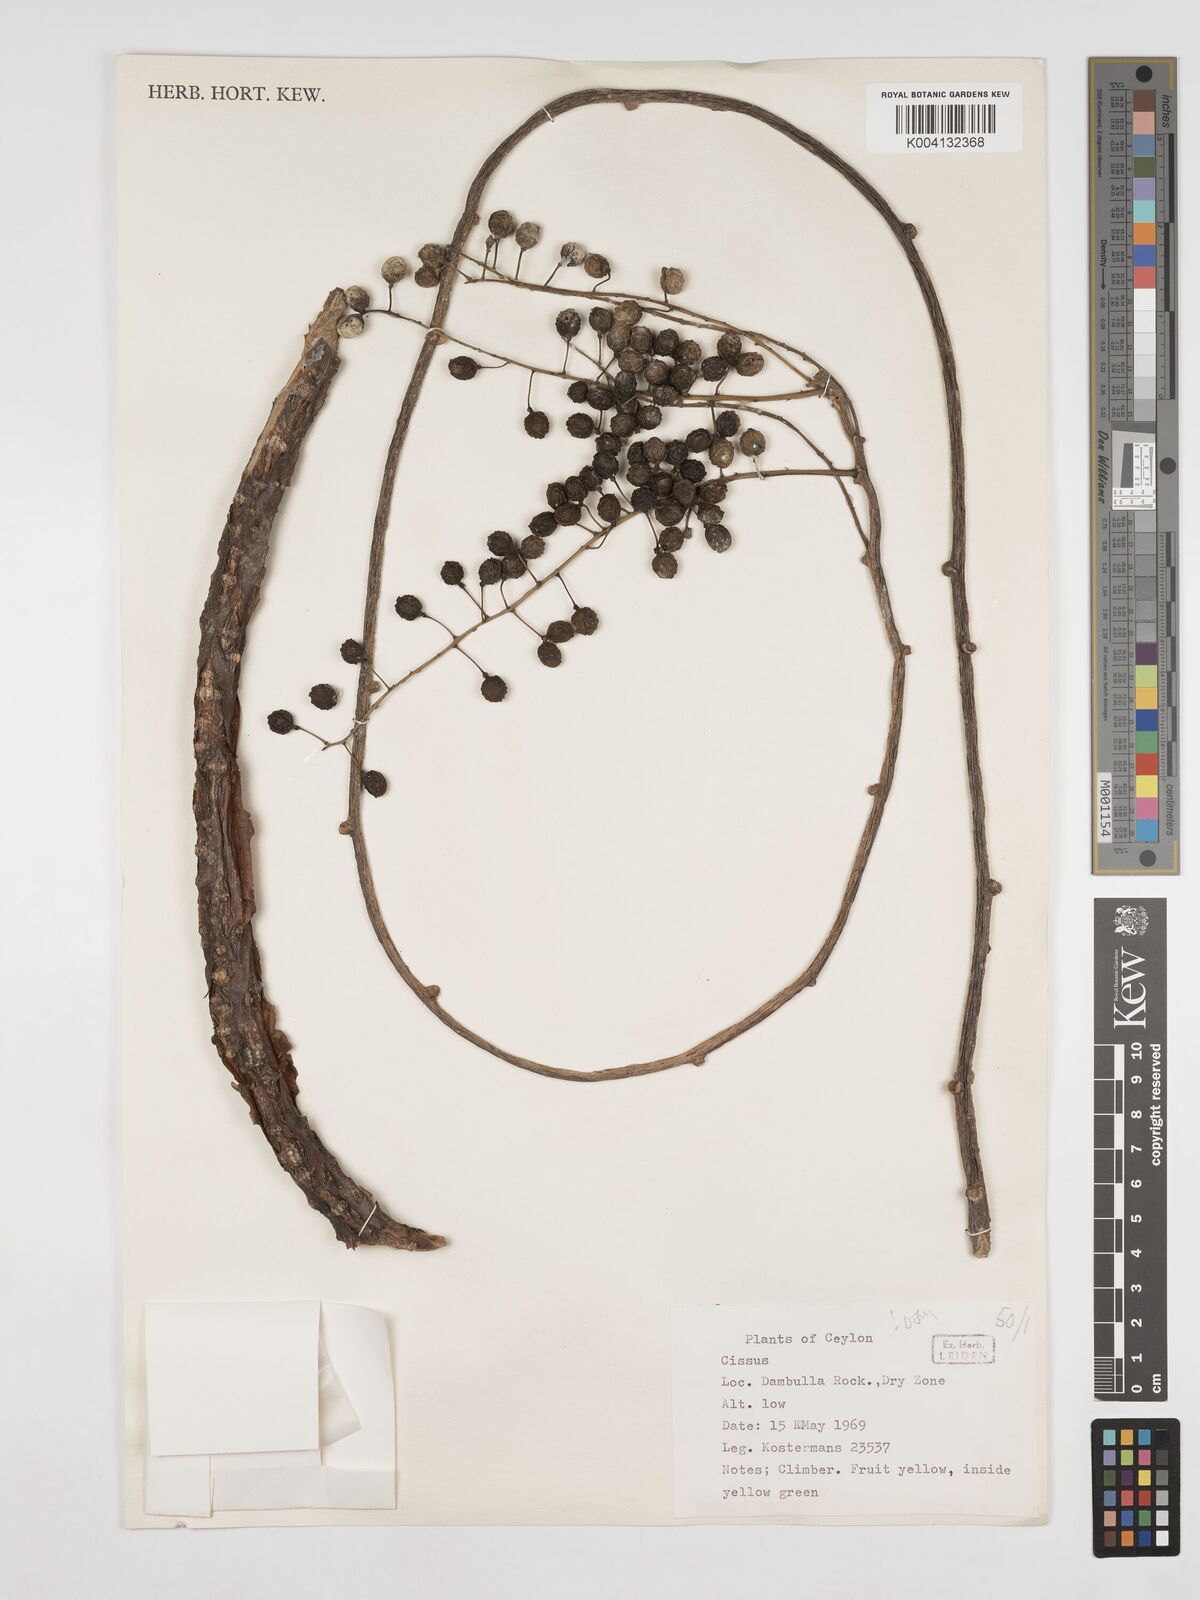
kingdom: Plantae
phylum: Tracheophyta
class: Magnoliopsida
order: Vitales
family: Vitaceae
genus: Cissus
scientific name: Cissus
